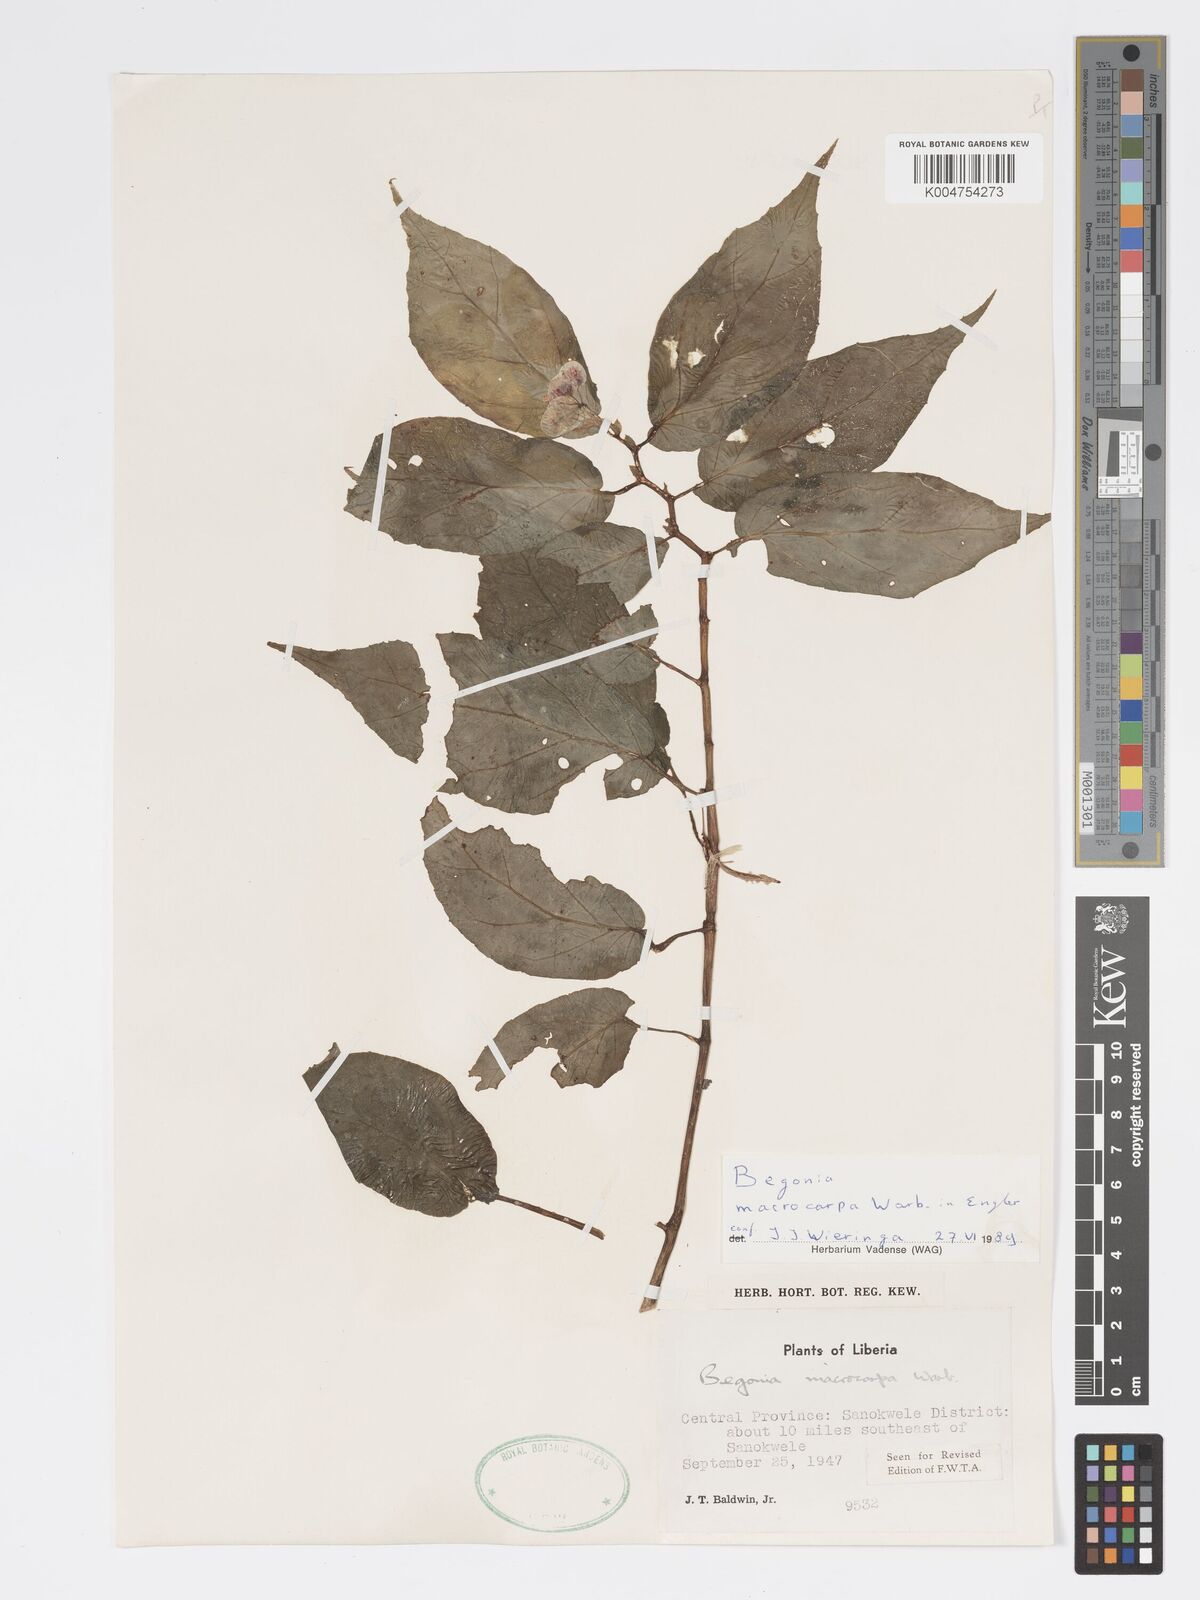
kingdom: Plantae
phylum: Tracheophyta
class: Magnoliopsida
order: Cucurbitales
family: Begoniaceae
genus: Begonia
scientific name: Begonia macrocarpa
